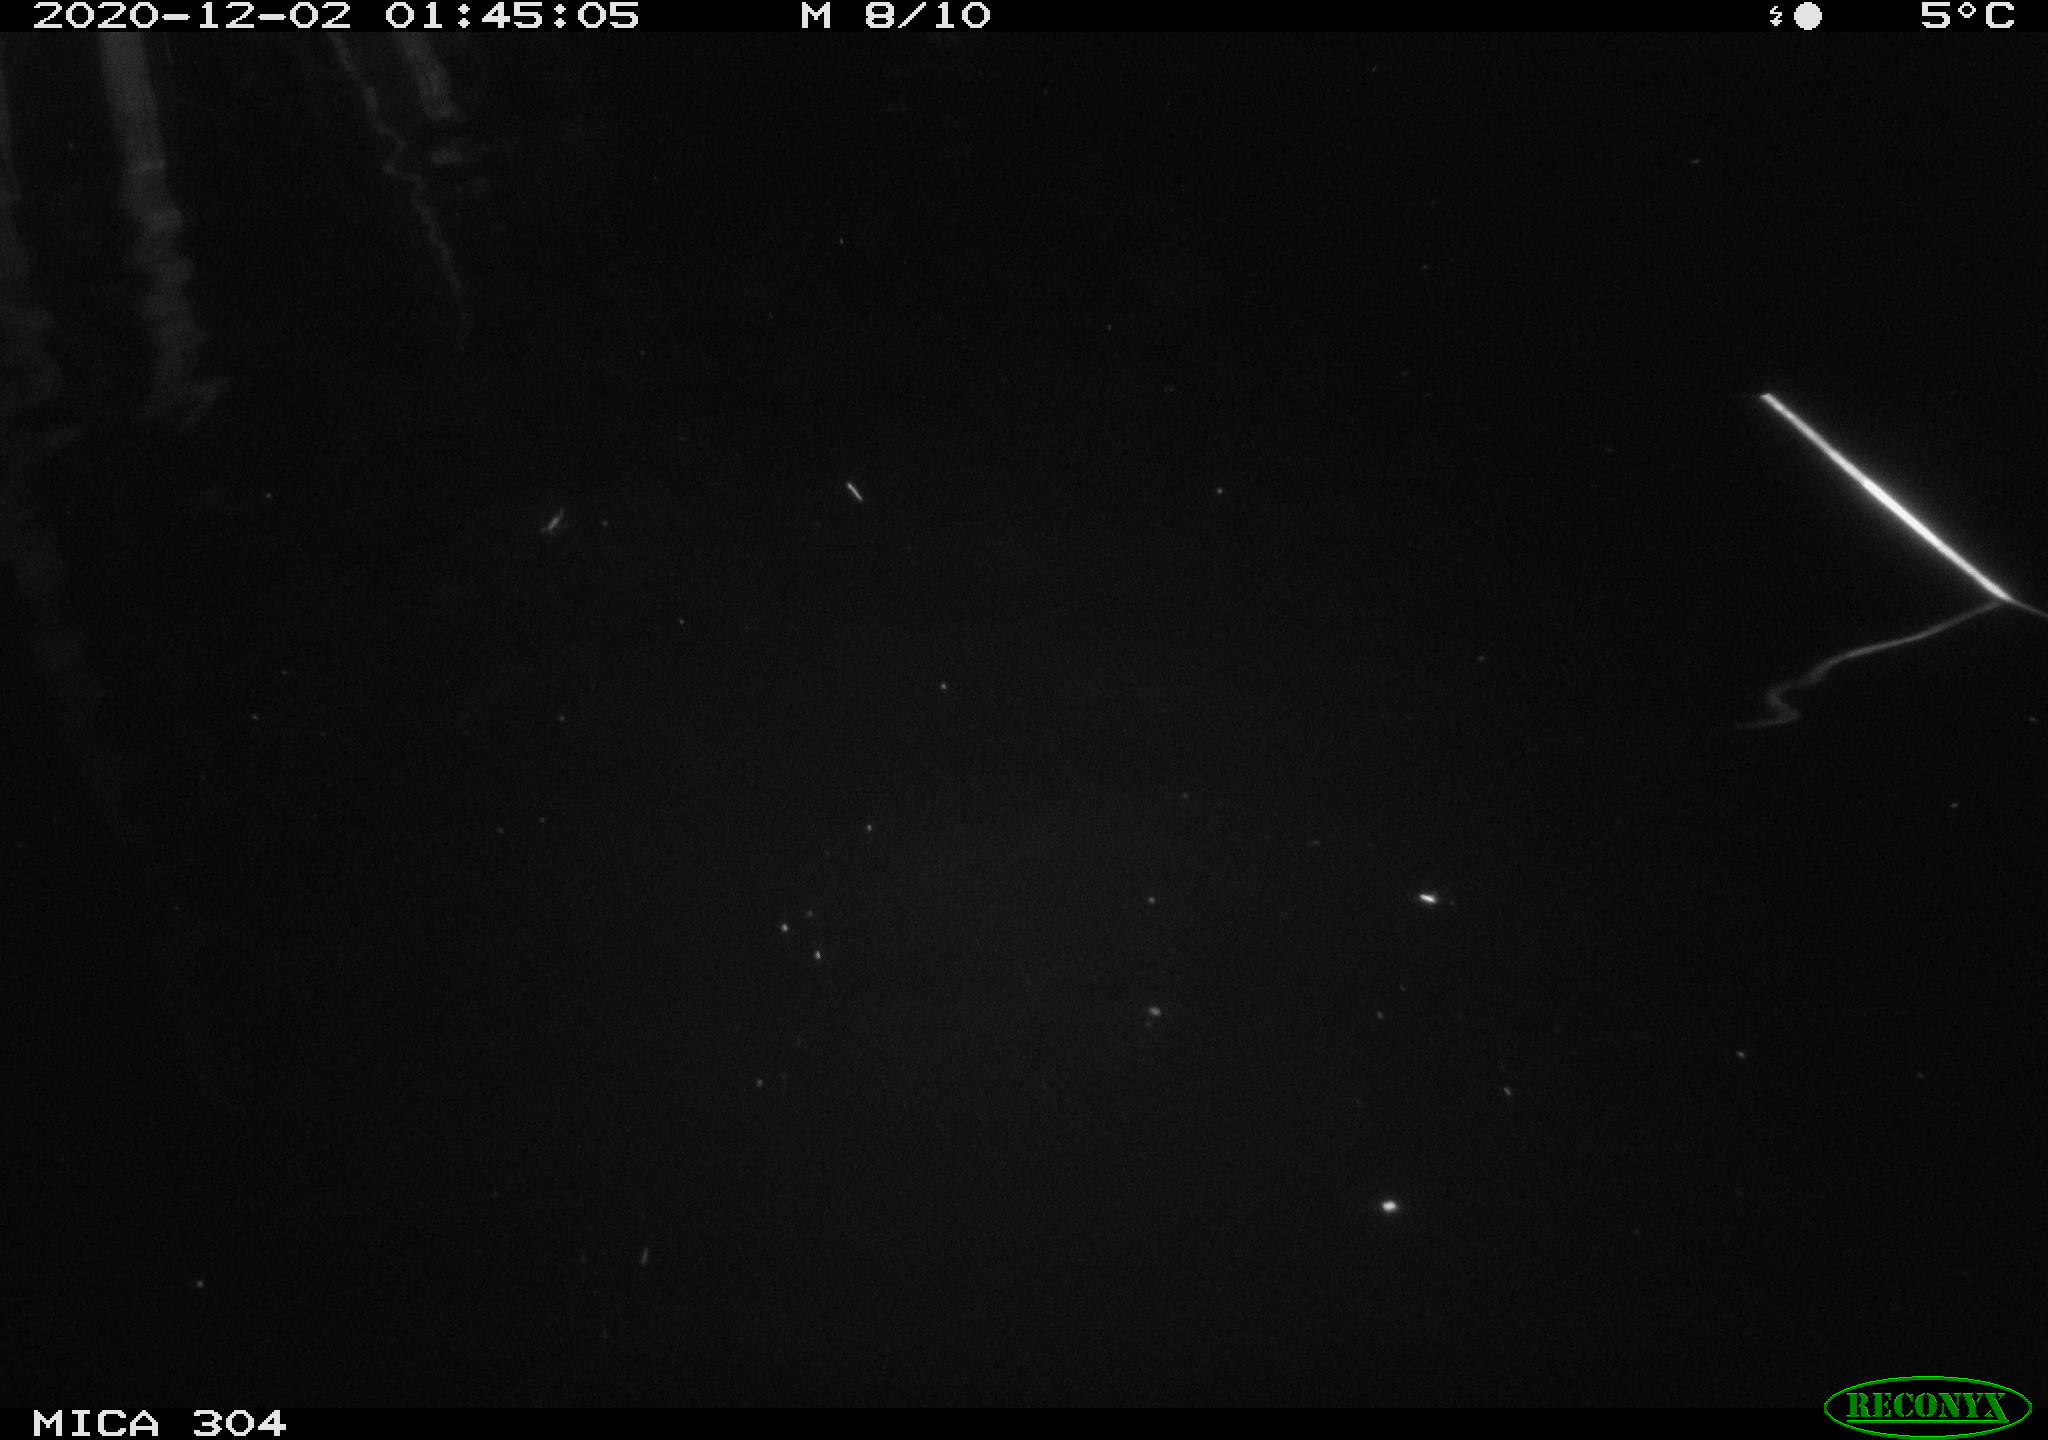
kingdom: Animalia
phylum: Chordata
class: Mammalia
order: Rodentia
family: Cricetidae
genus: Ondatra
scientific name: Ondatra zibethicus
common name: Muskrat
